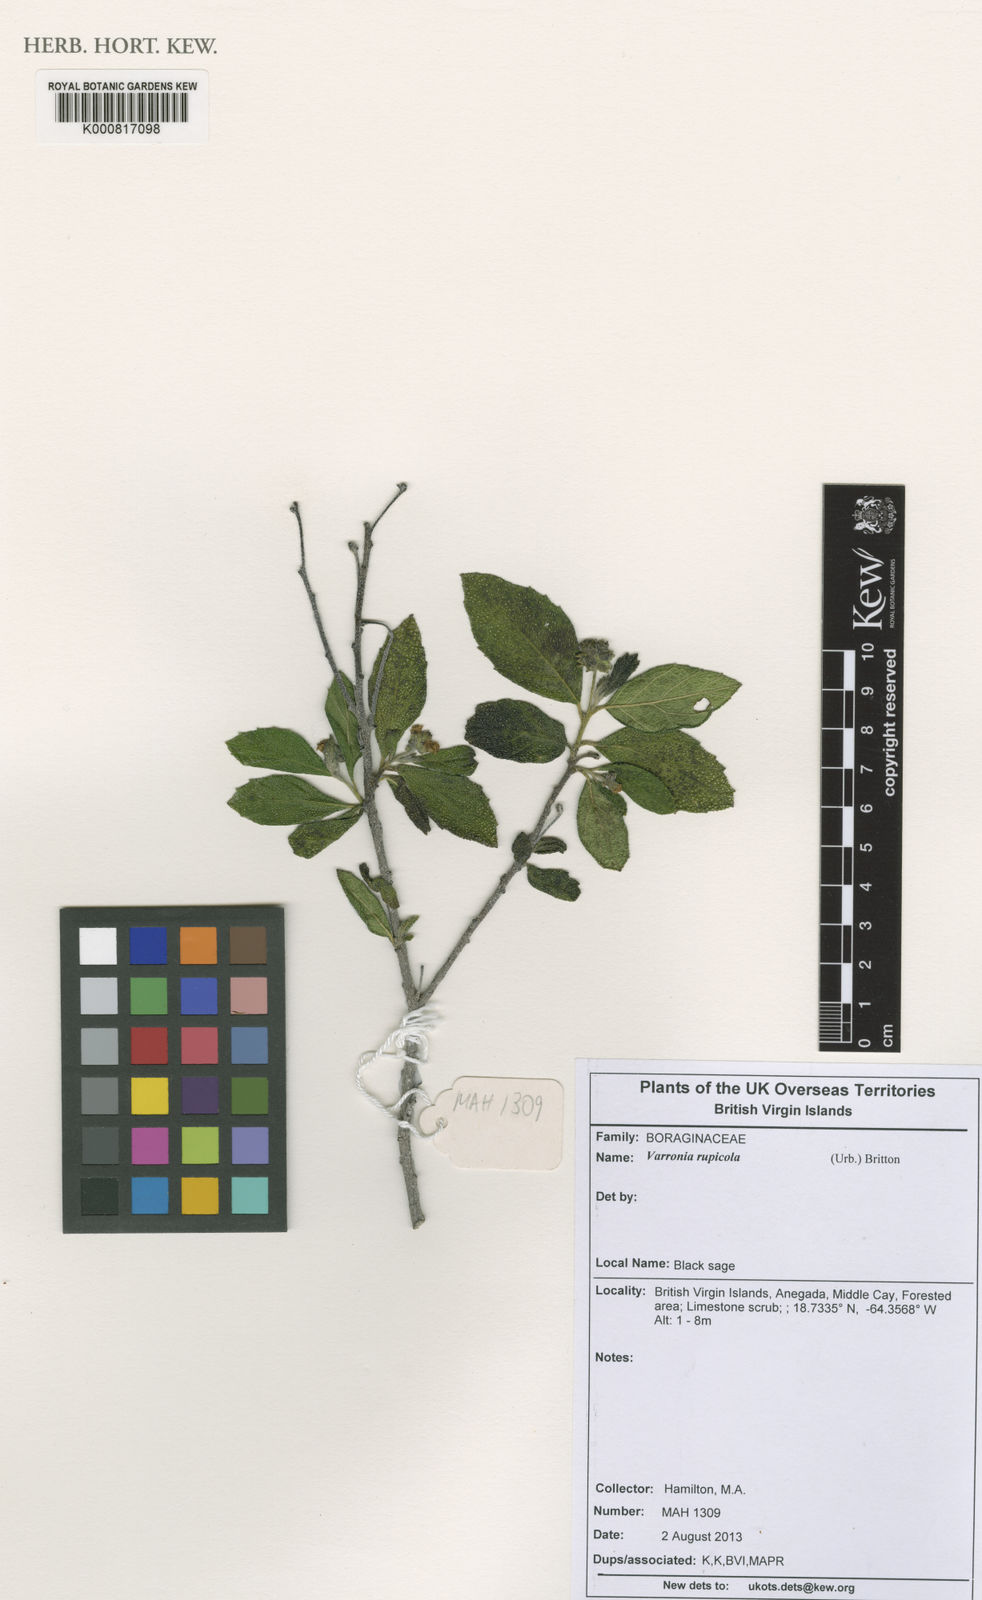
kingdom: Plantae
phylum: Tracheophyta
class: Magnoliopsida
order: Boraginales
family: Cordiaceae
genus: Varronia
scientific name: Varronia rupicola
